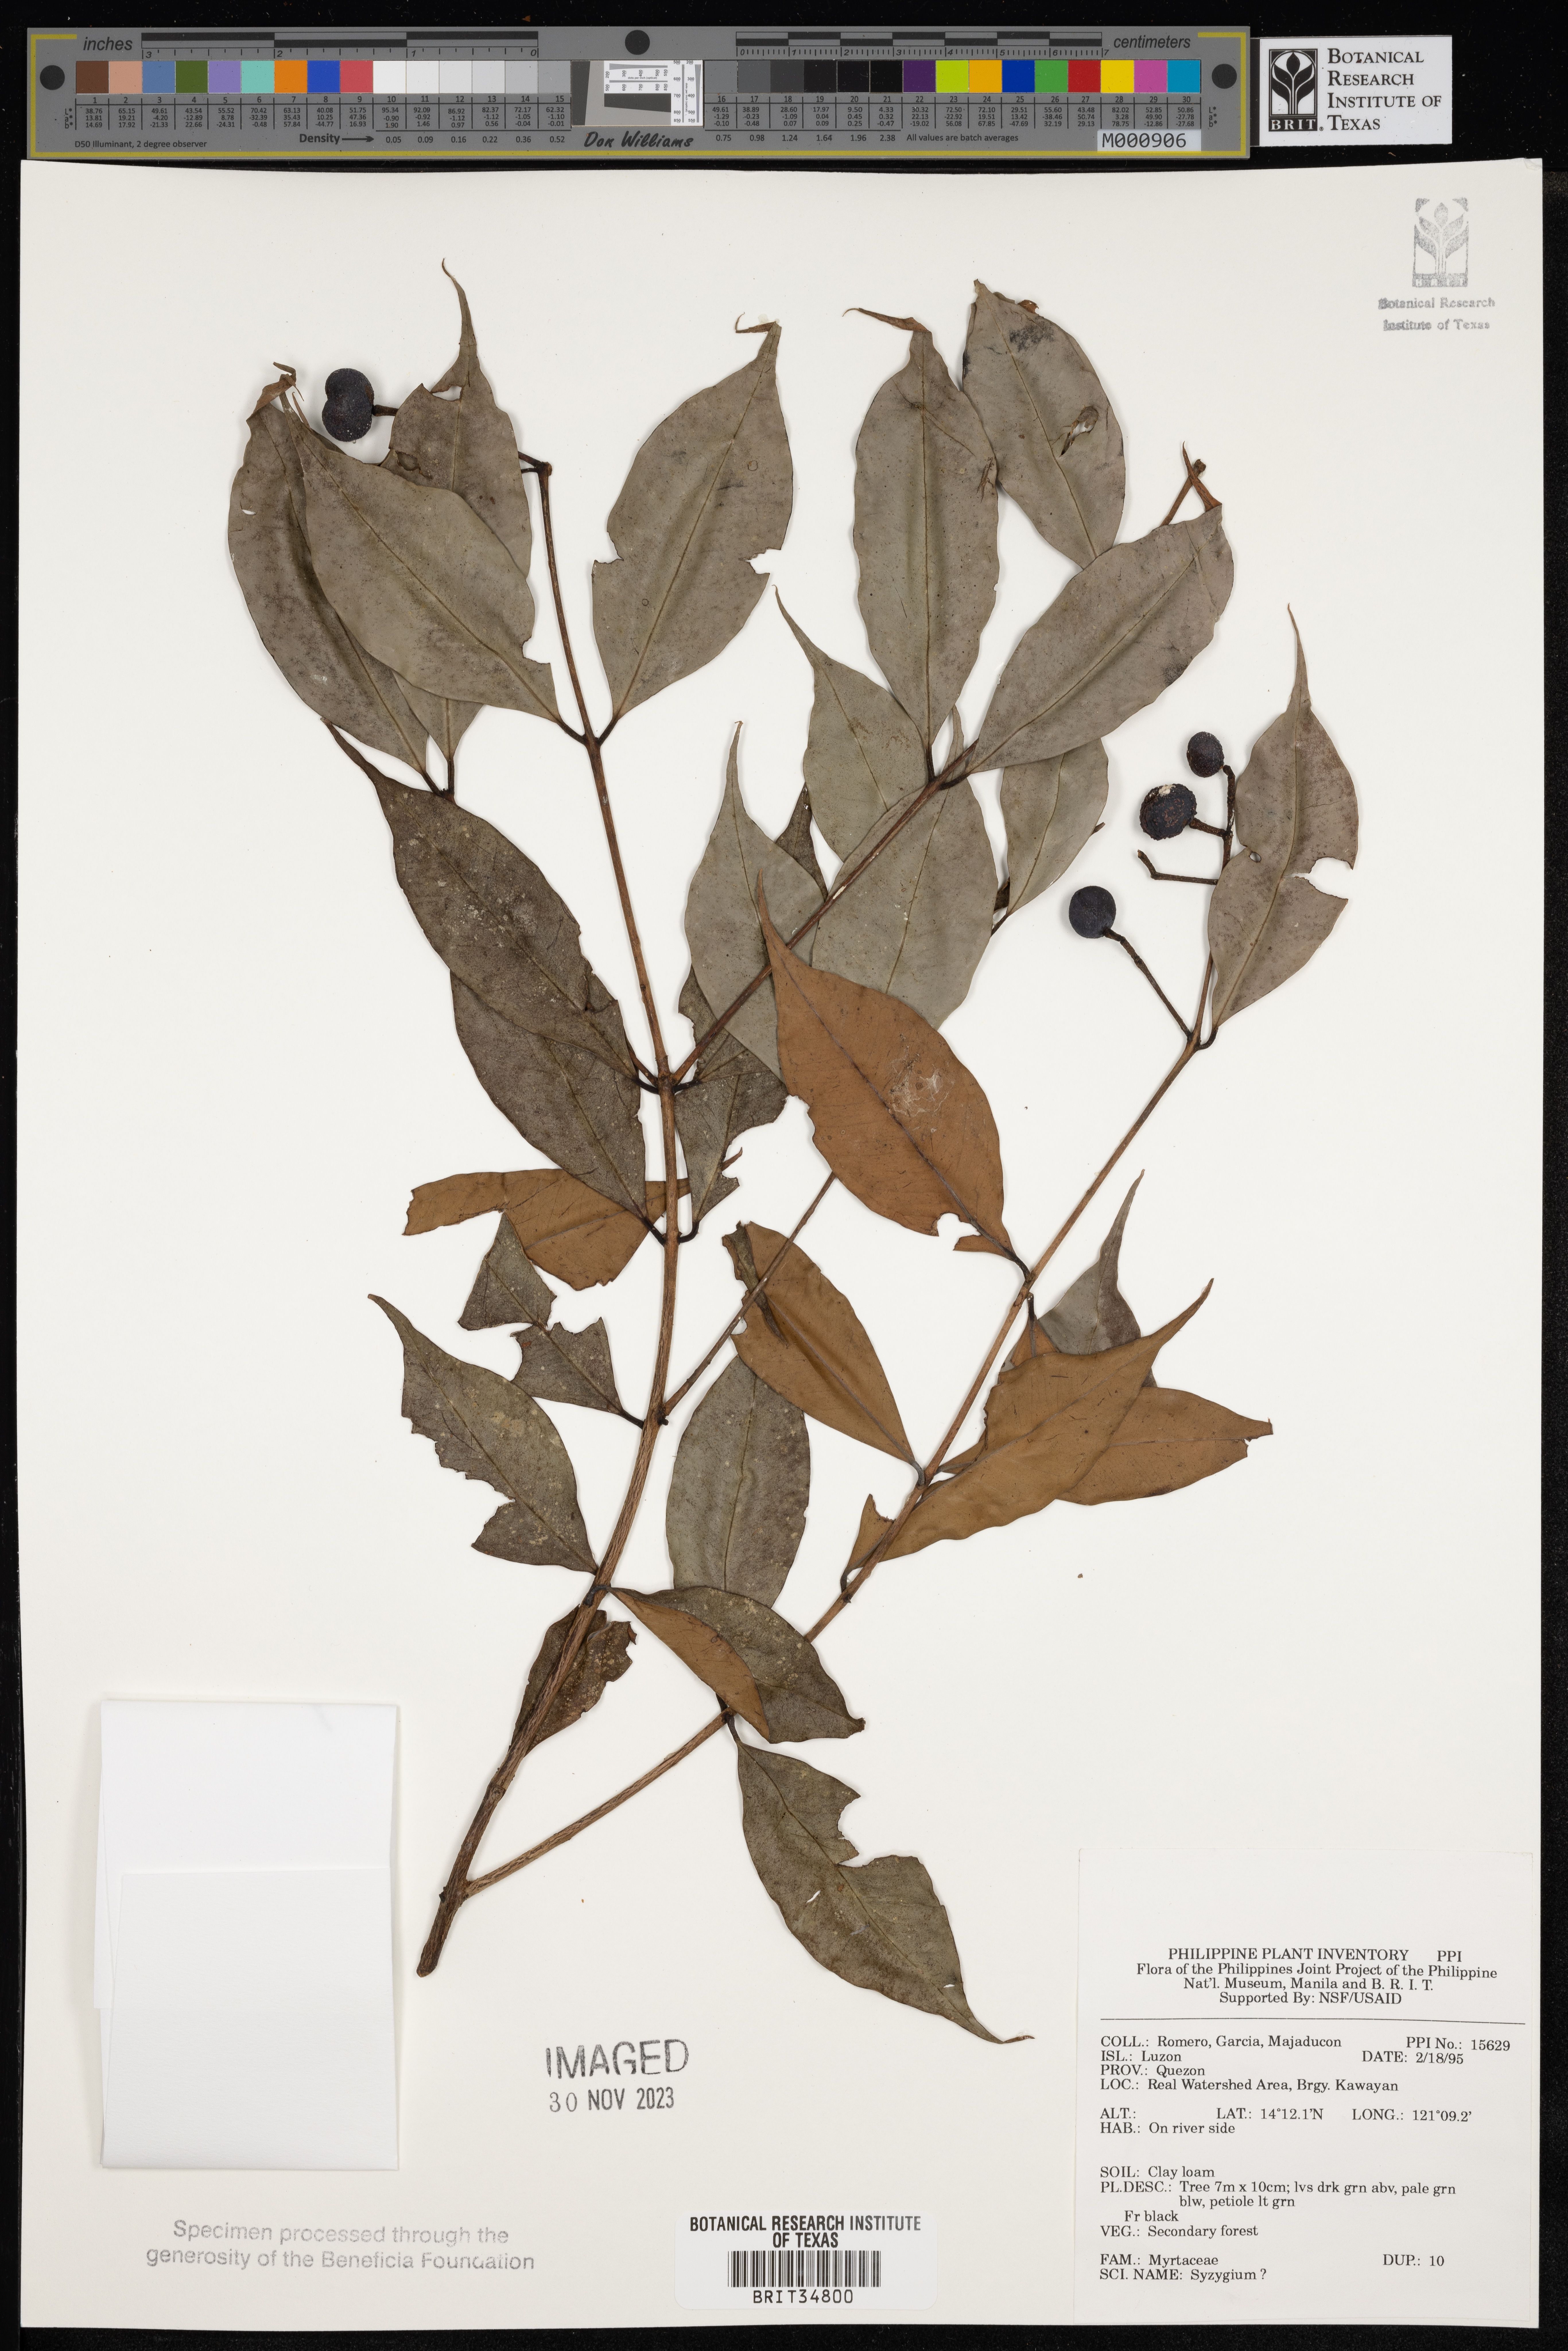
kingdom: Plantae
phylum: Tracheophyta
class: Magnoliopsida
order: Myrtales
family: Myrtaceae
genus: Syzygium
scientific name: Syzygium
